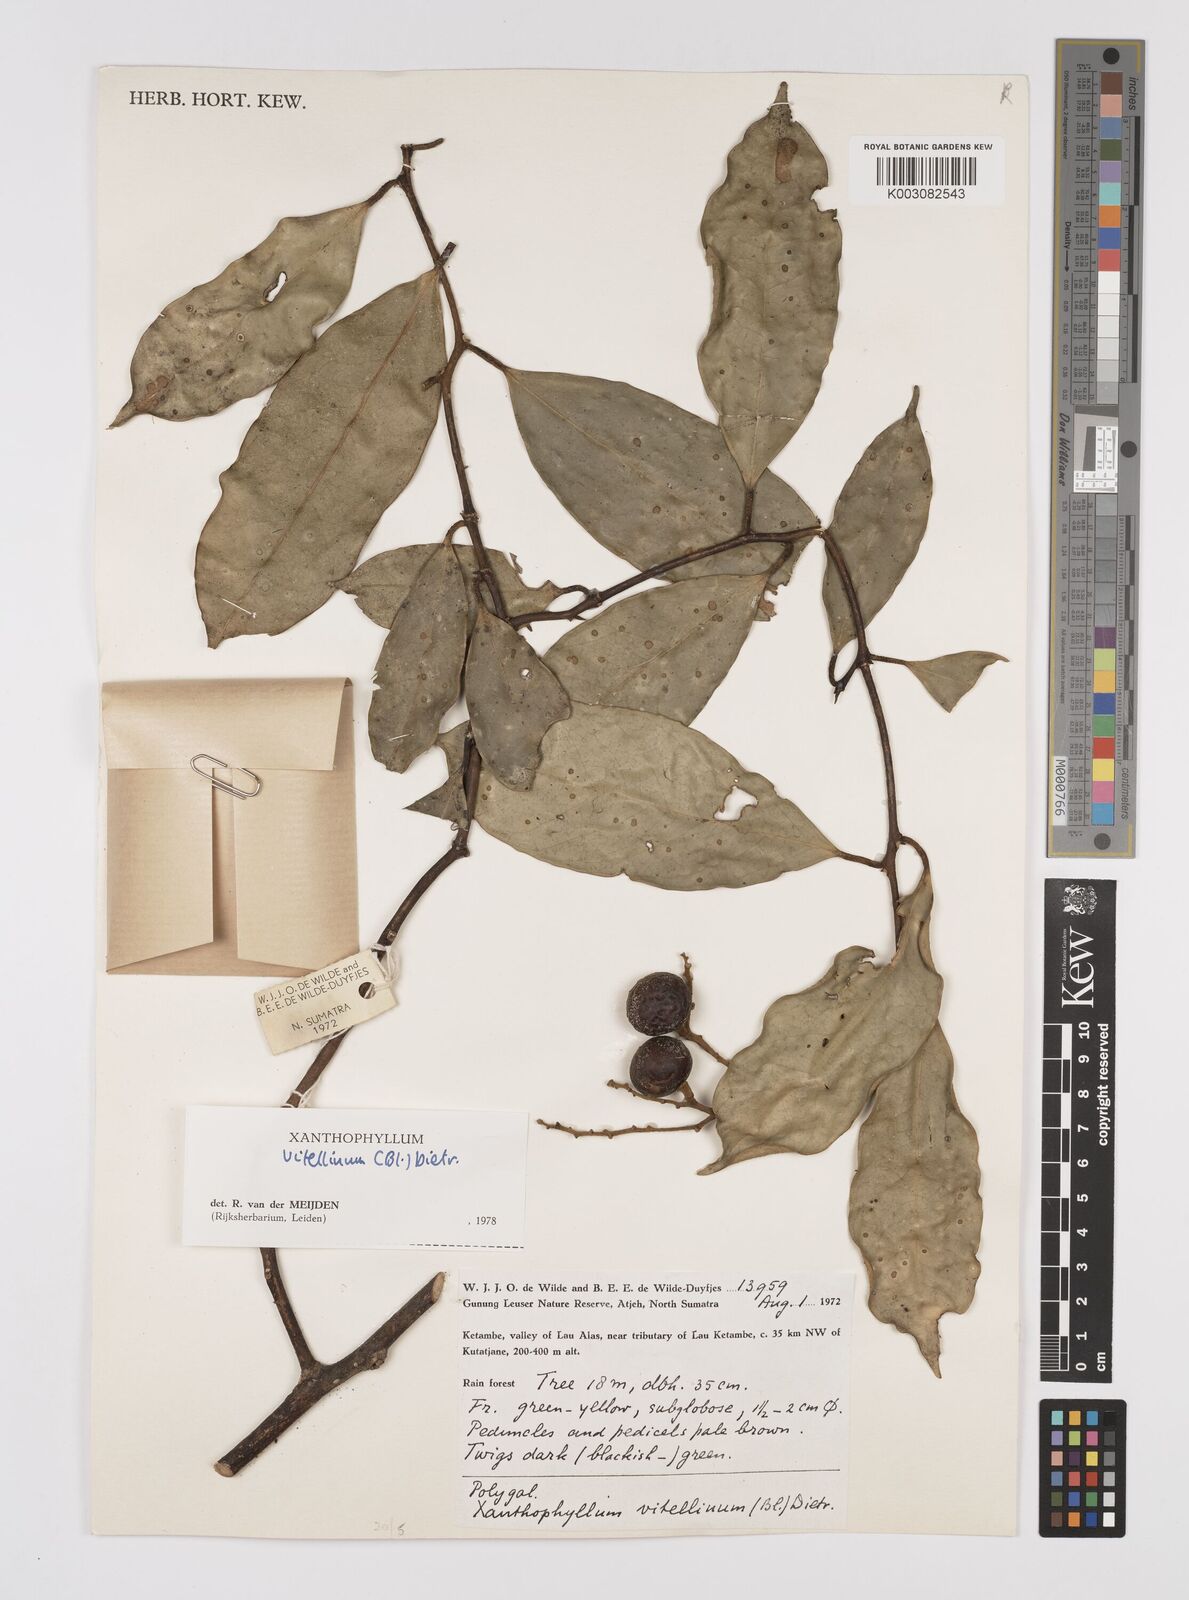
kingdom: Plantae
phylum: Tracheophyta
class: Magnoliopsida
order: Fabales
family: Polygalaceae
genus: Xanthophyllum
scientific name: Xanthophyllum vitellinum
